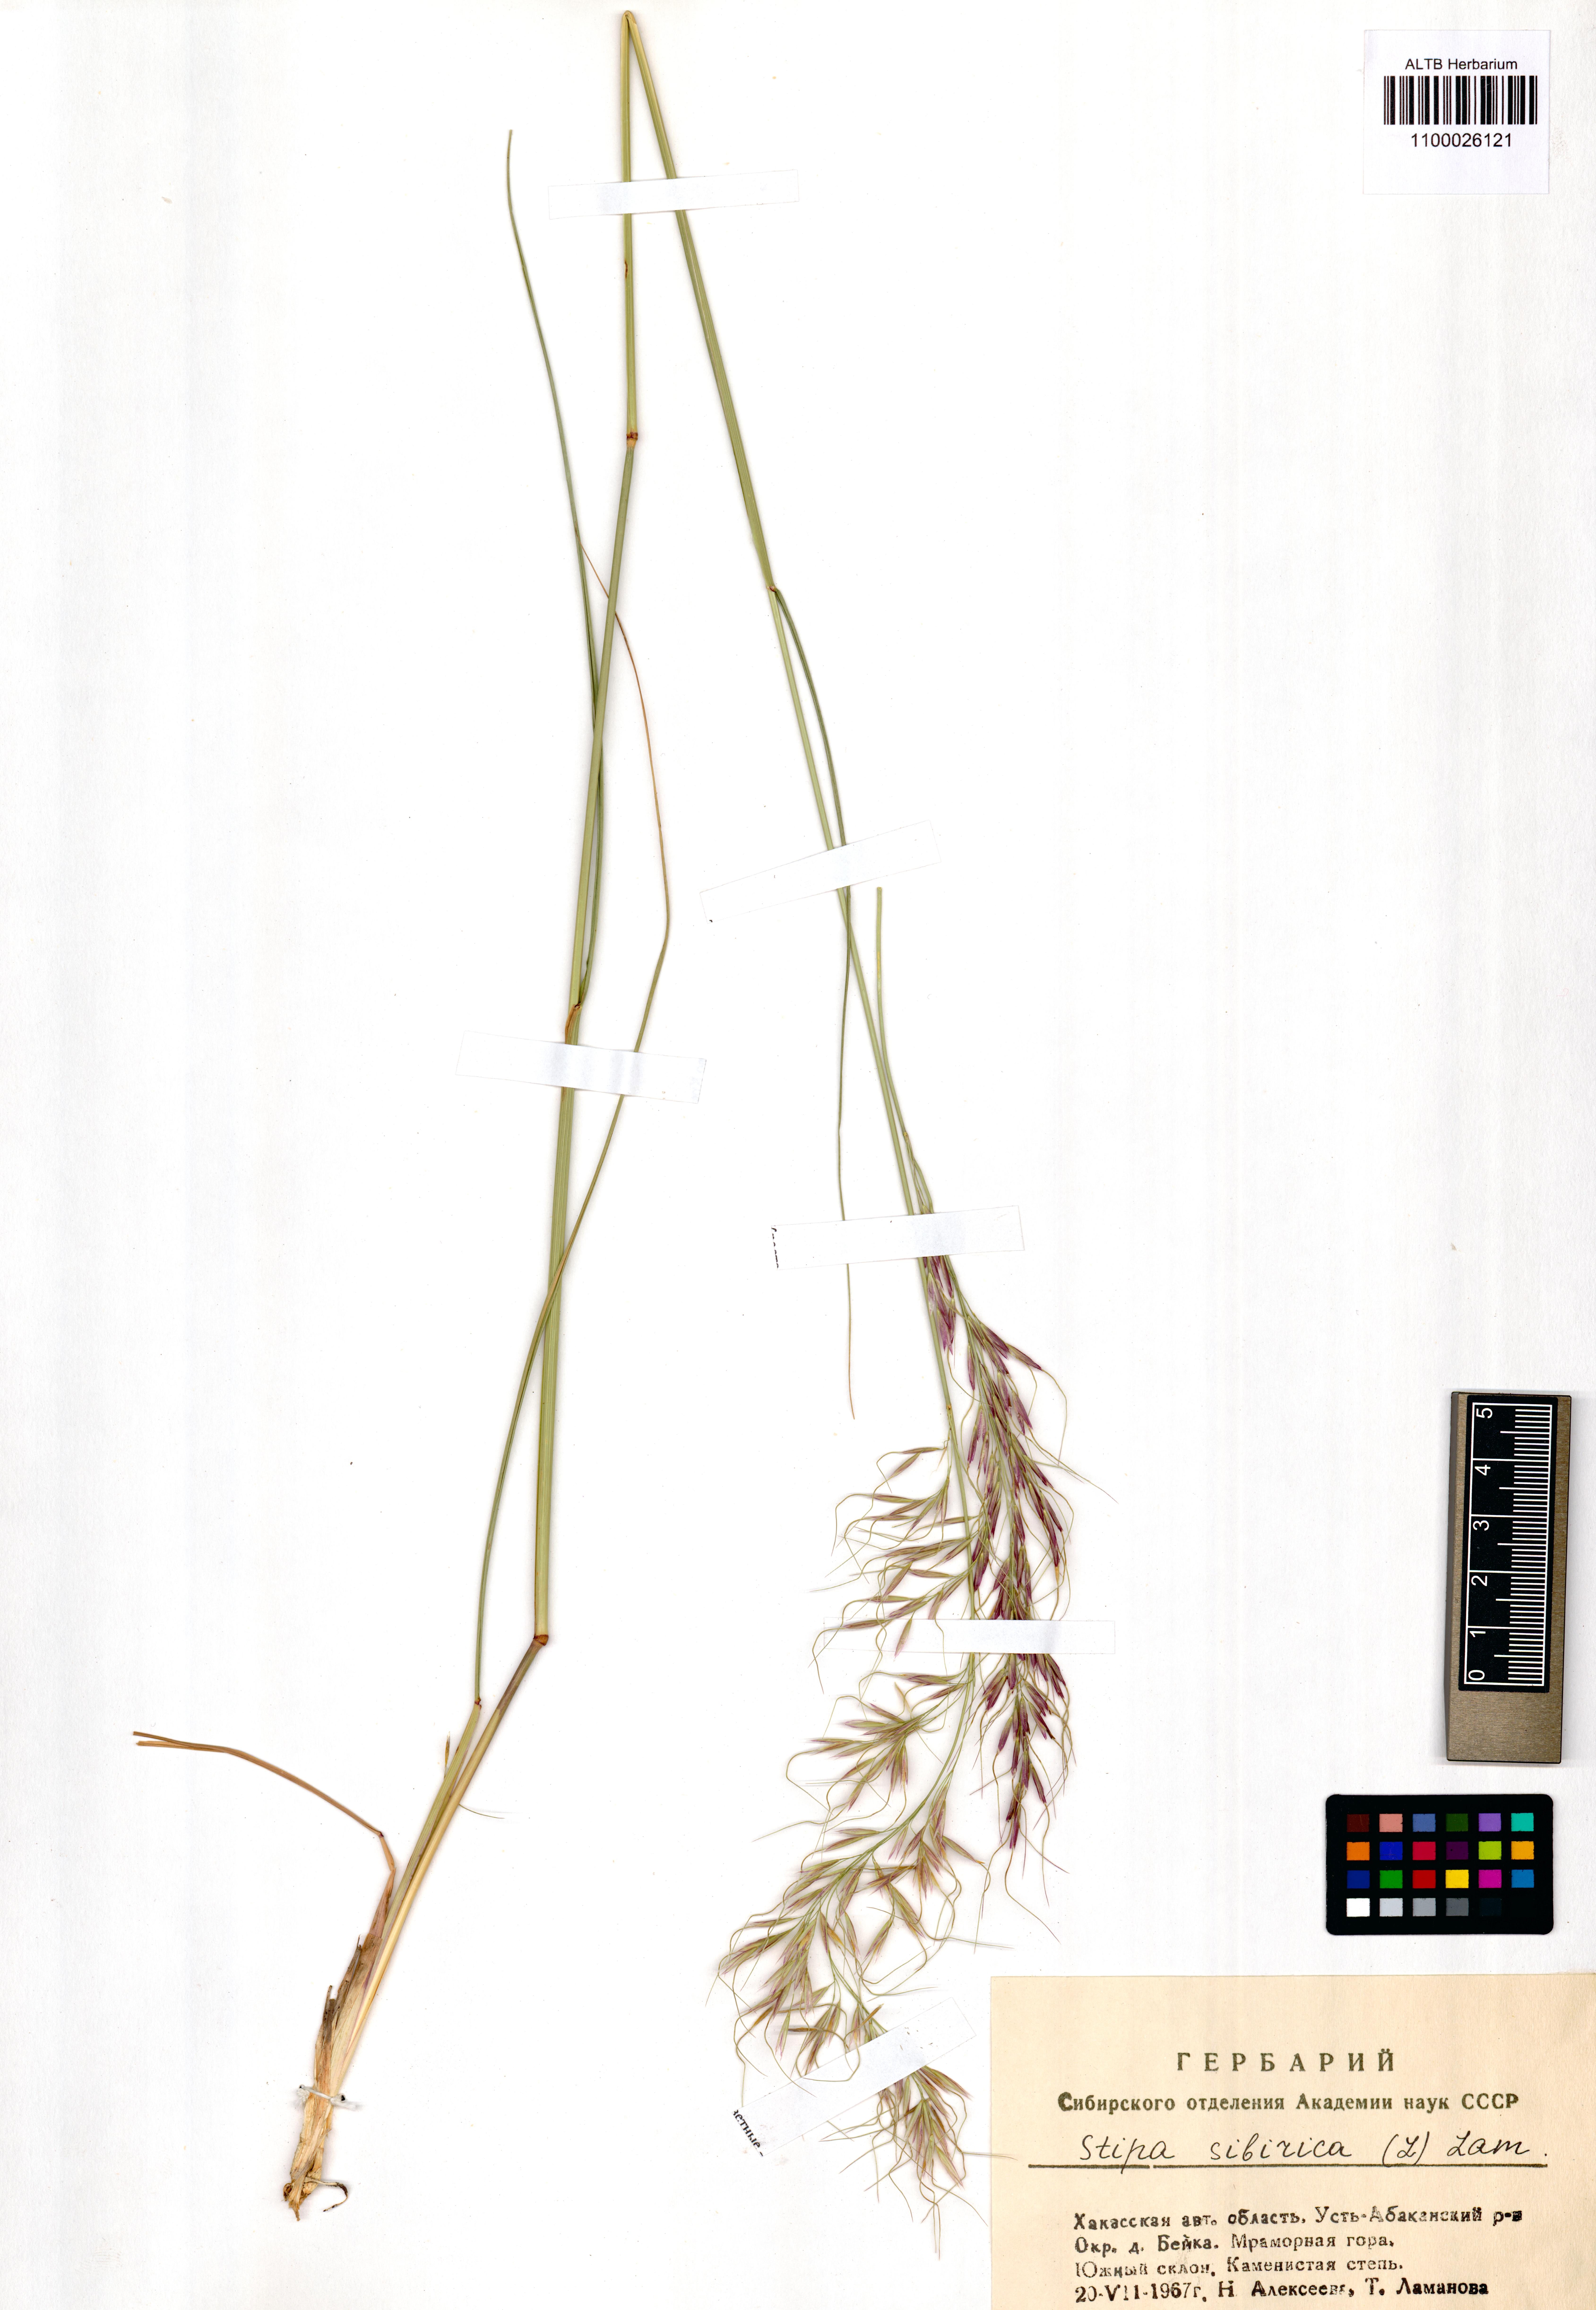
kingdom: Plantae
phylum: Tracheophyta
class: Liliopsida
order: Poales
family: Poaceae
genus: Achnatherum
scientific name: Achnatherum sibiricum
